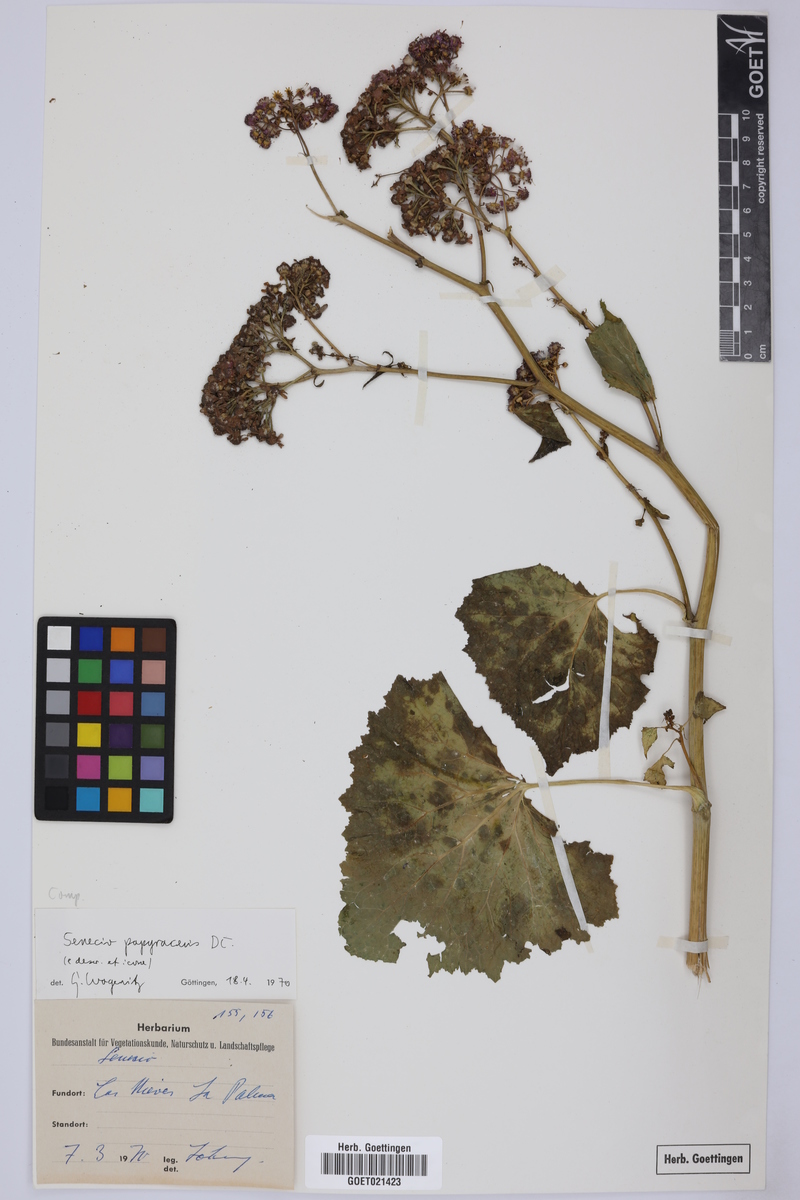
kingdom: Plantae
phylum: Tracheophyta
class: Magnoliopsida
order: Asterales
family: Asteraceae
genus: Pericallis
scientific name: Pericallis papyracea
